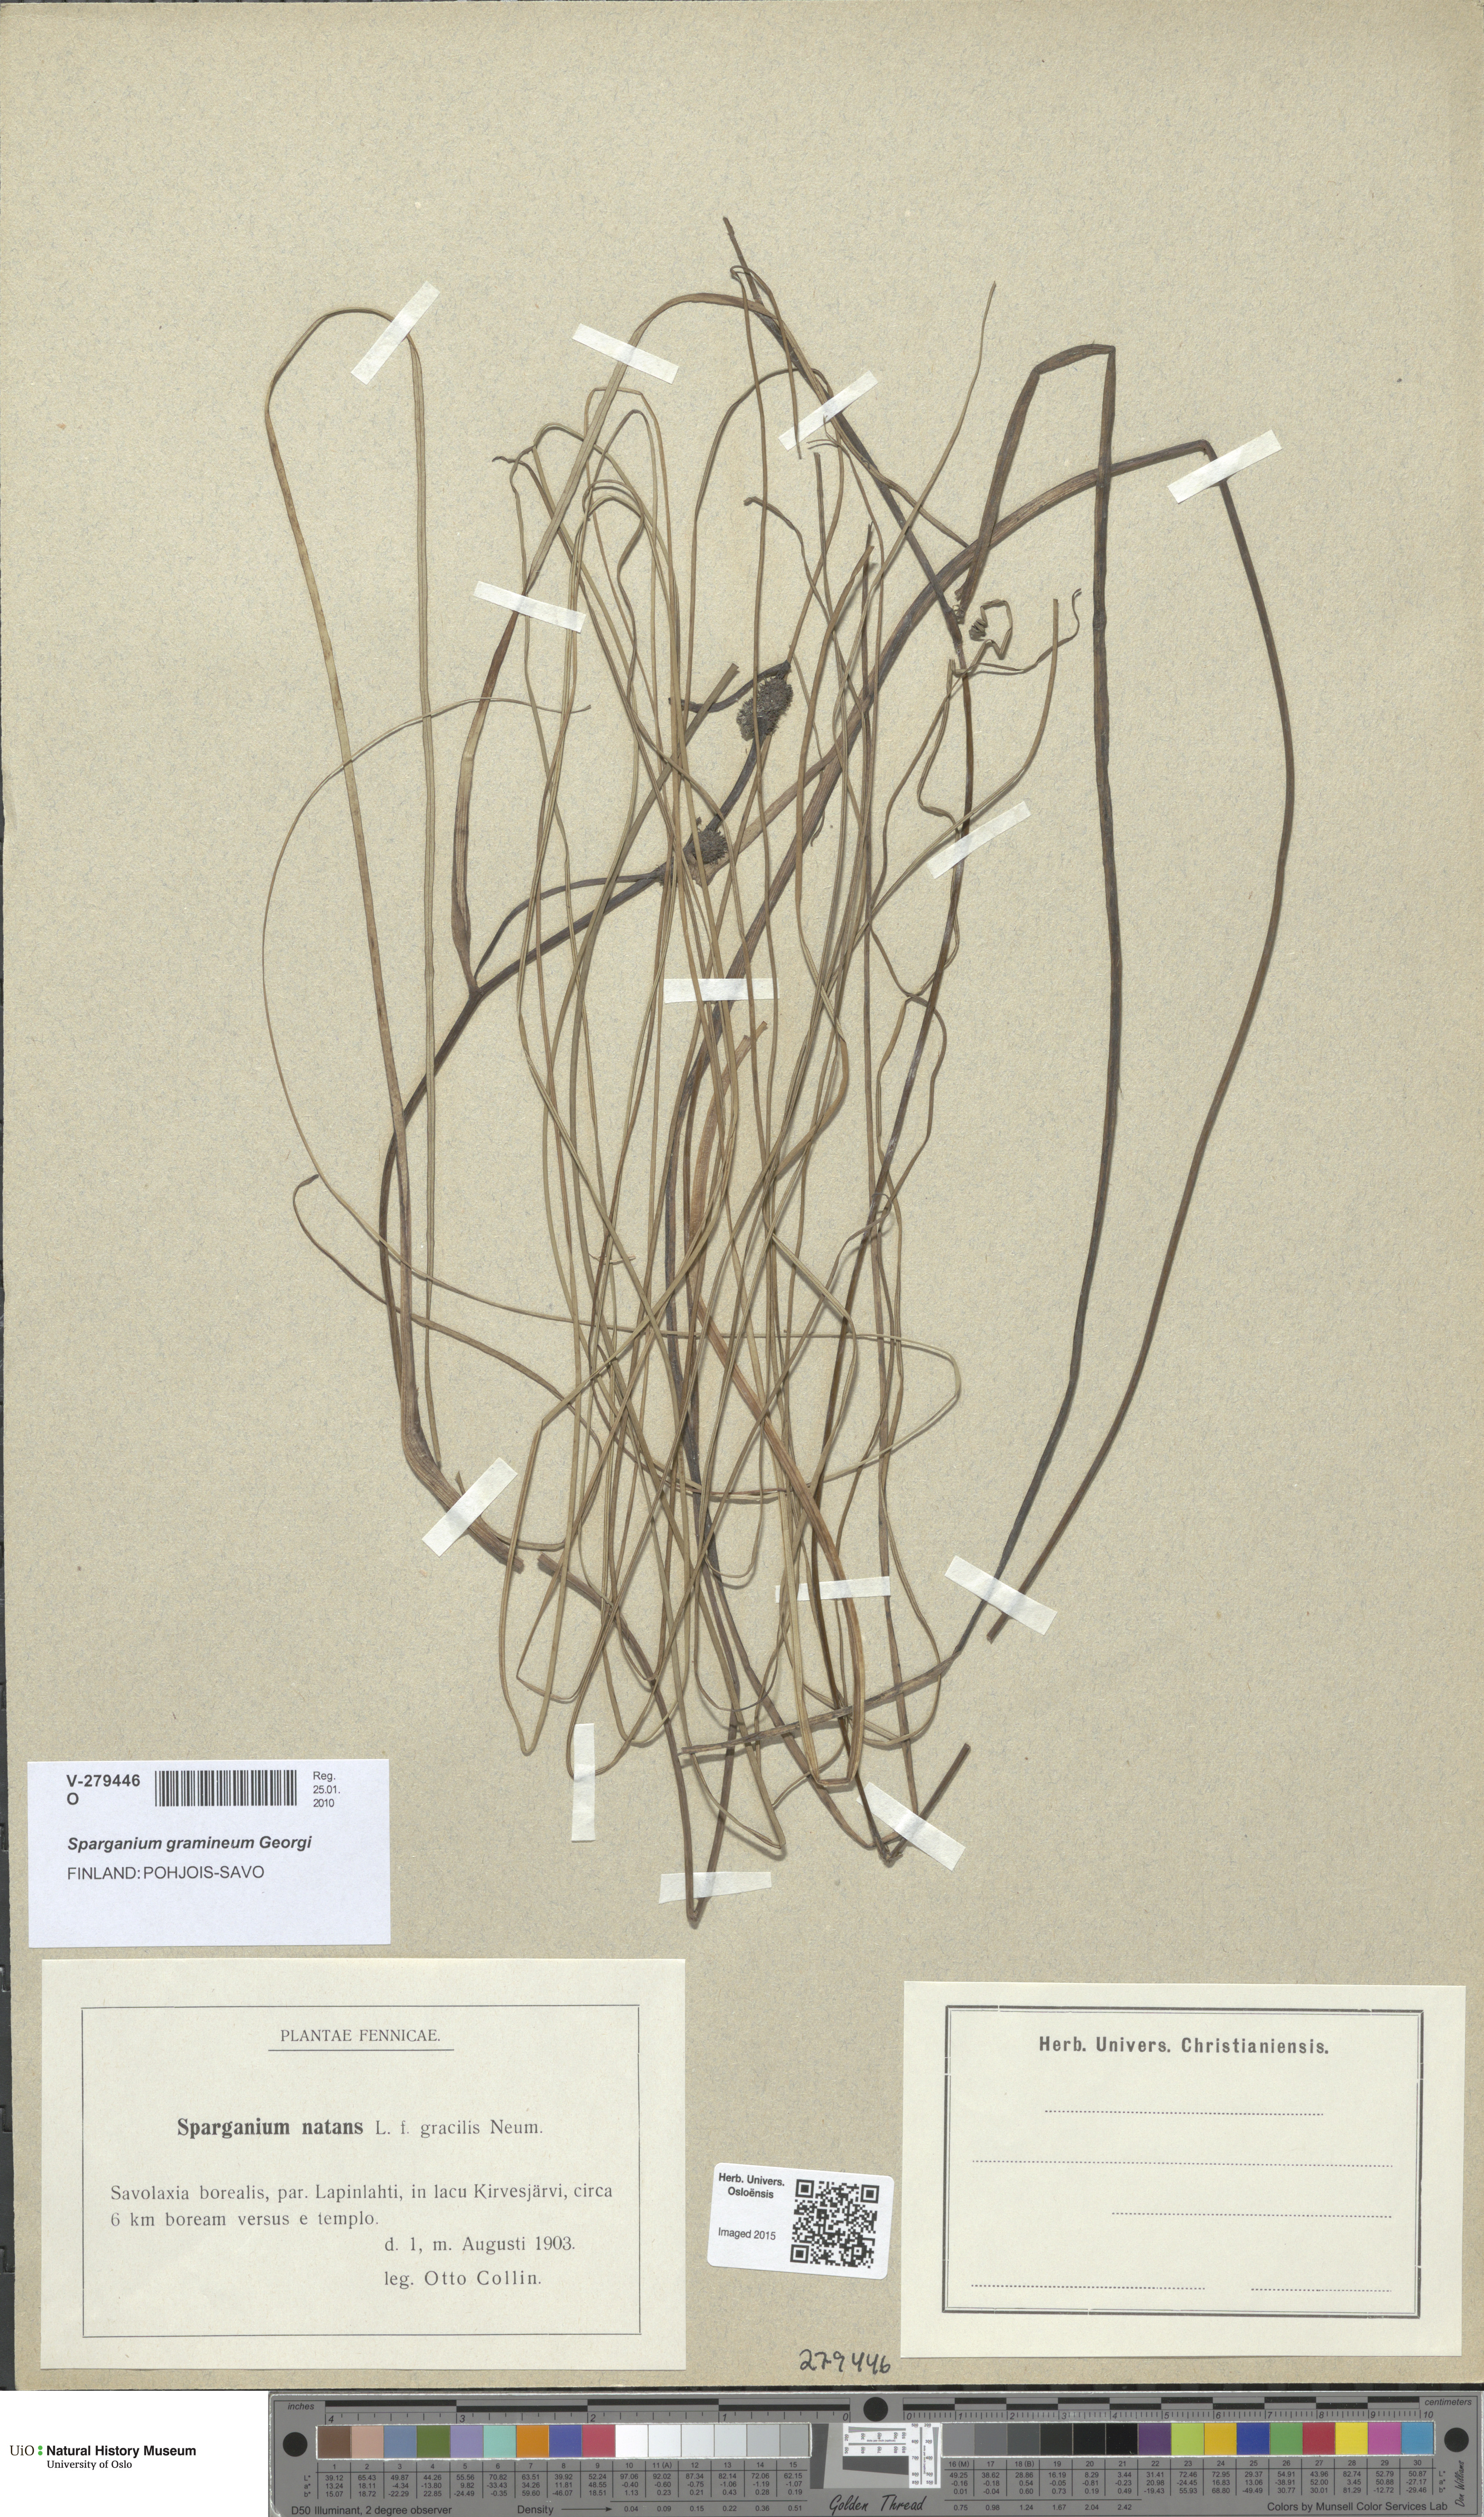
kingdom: Plantae
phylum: Tracheophyta
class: Liliopsida
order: Poales
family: Typhaceae
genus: Sparganium
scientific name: Sparganium gramineum
